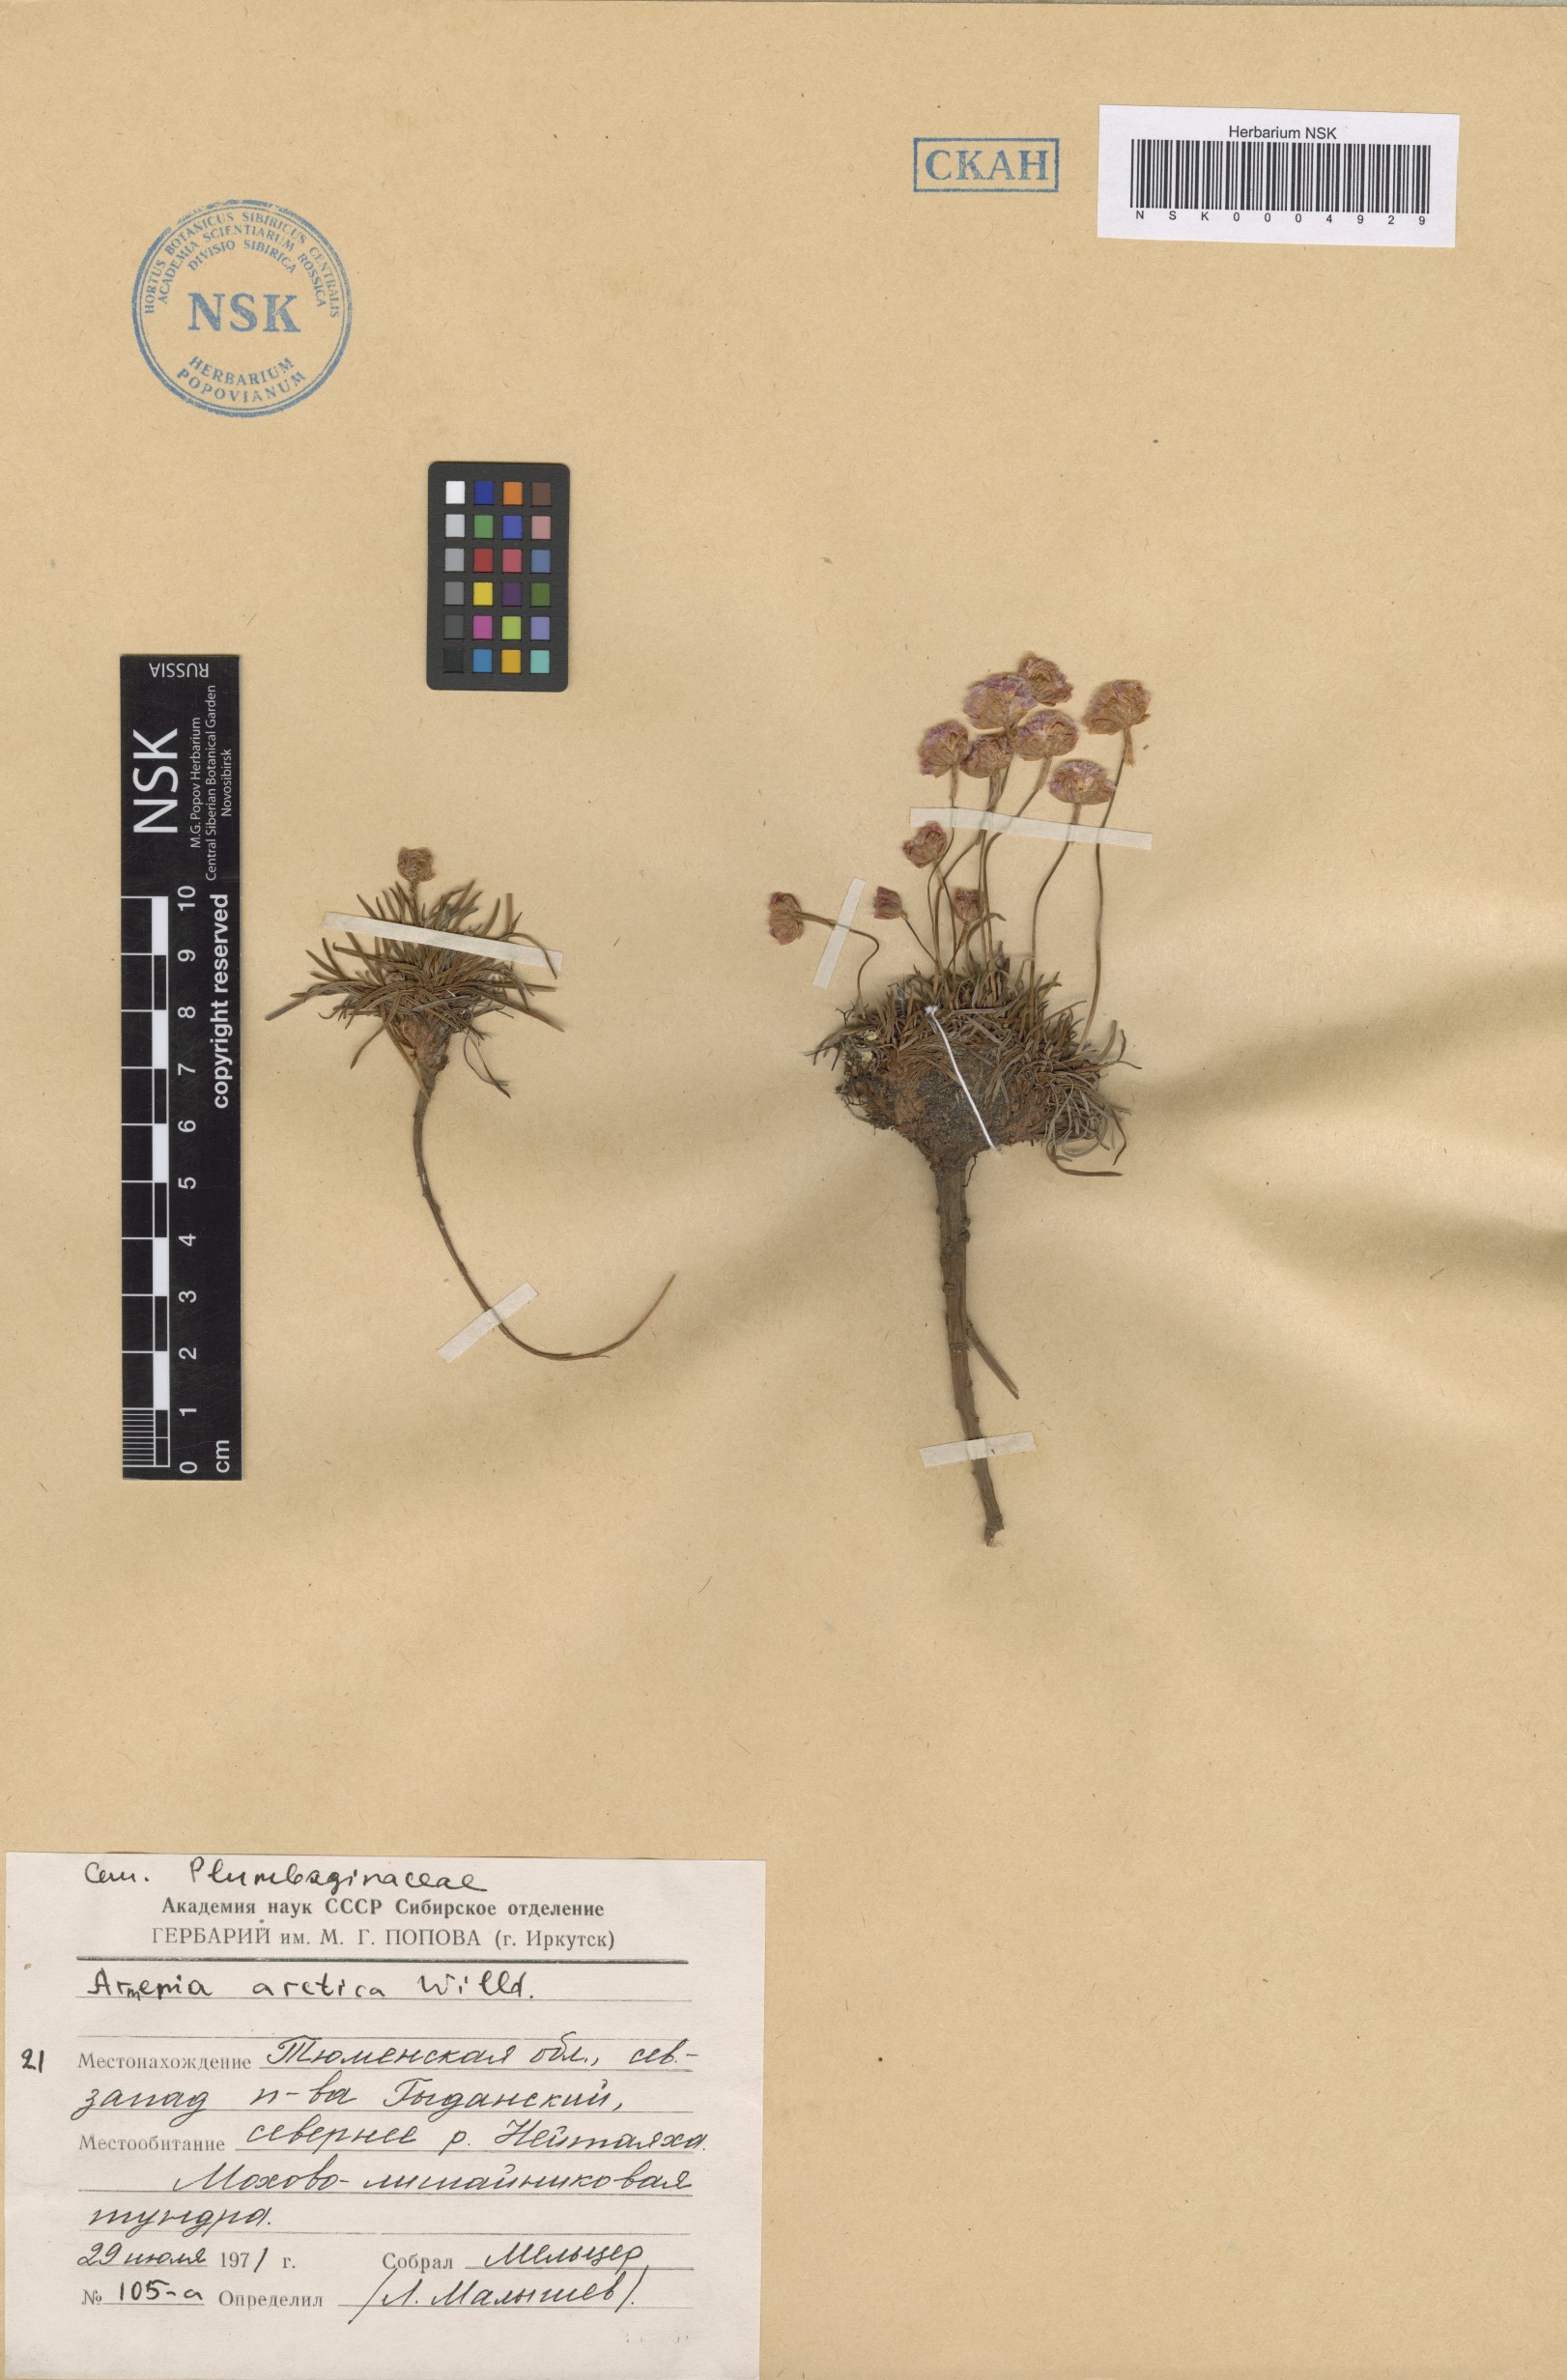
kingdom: Plantae
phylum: Tracheophyta
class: Magnoliopsida
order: Caryophyllales
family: Plumbaginaceae
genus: Armeria
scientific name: Armeria maritima
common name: Thrift
